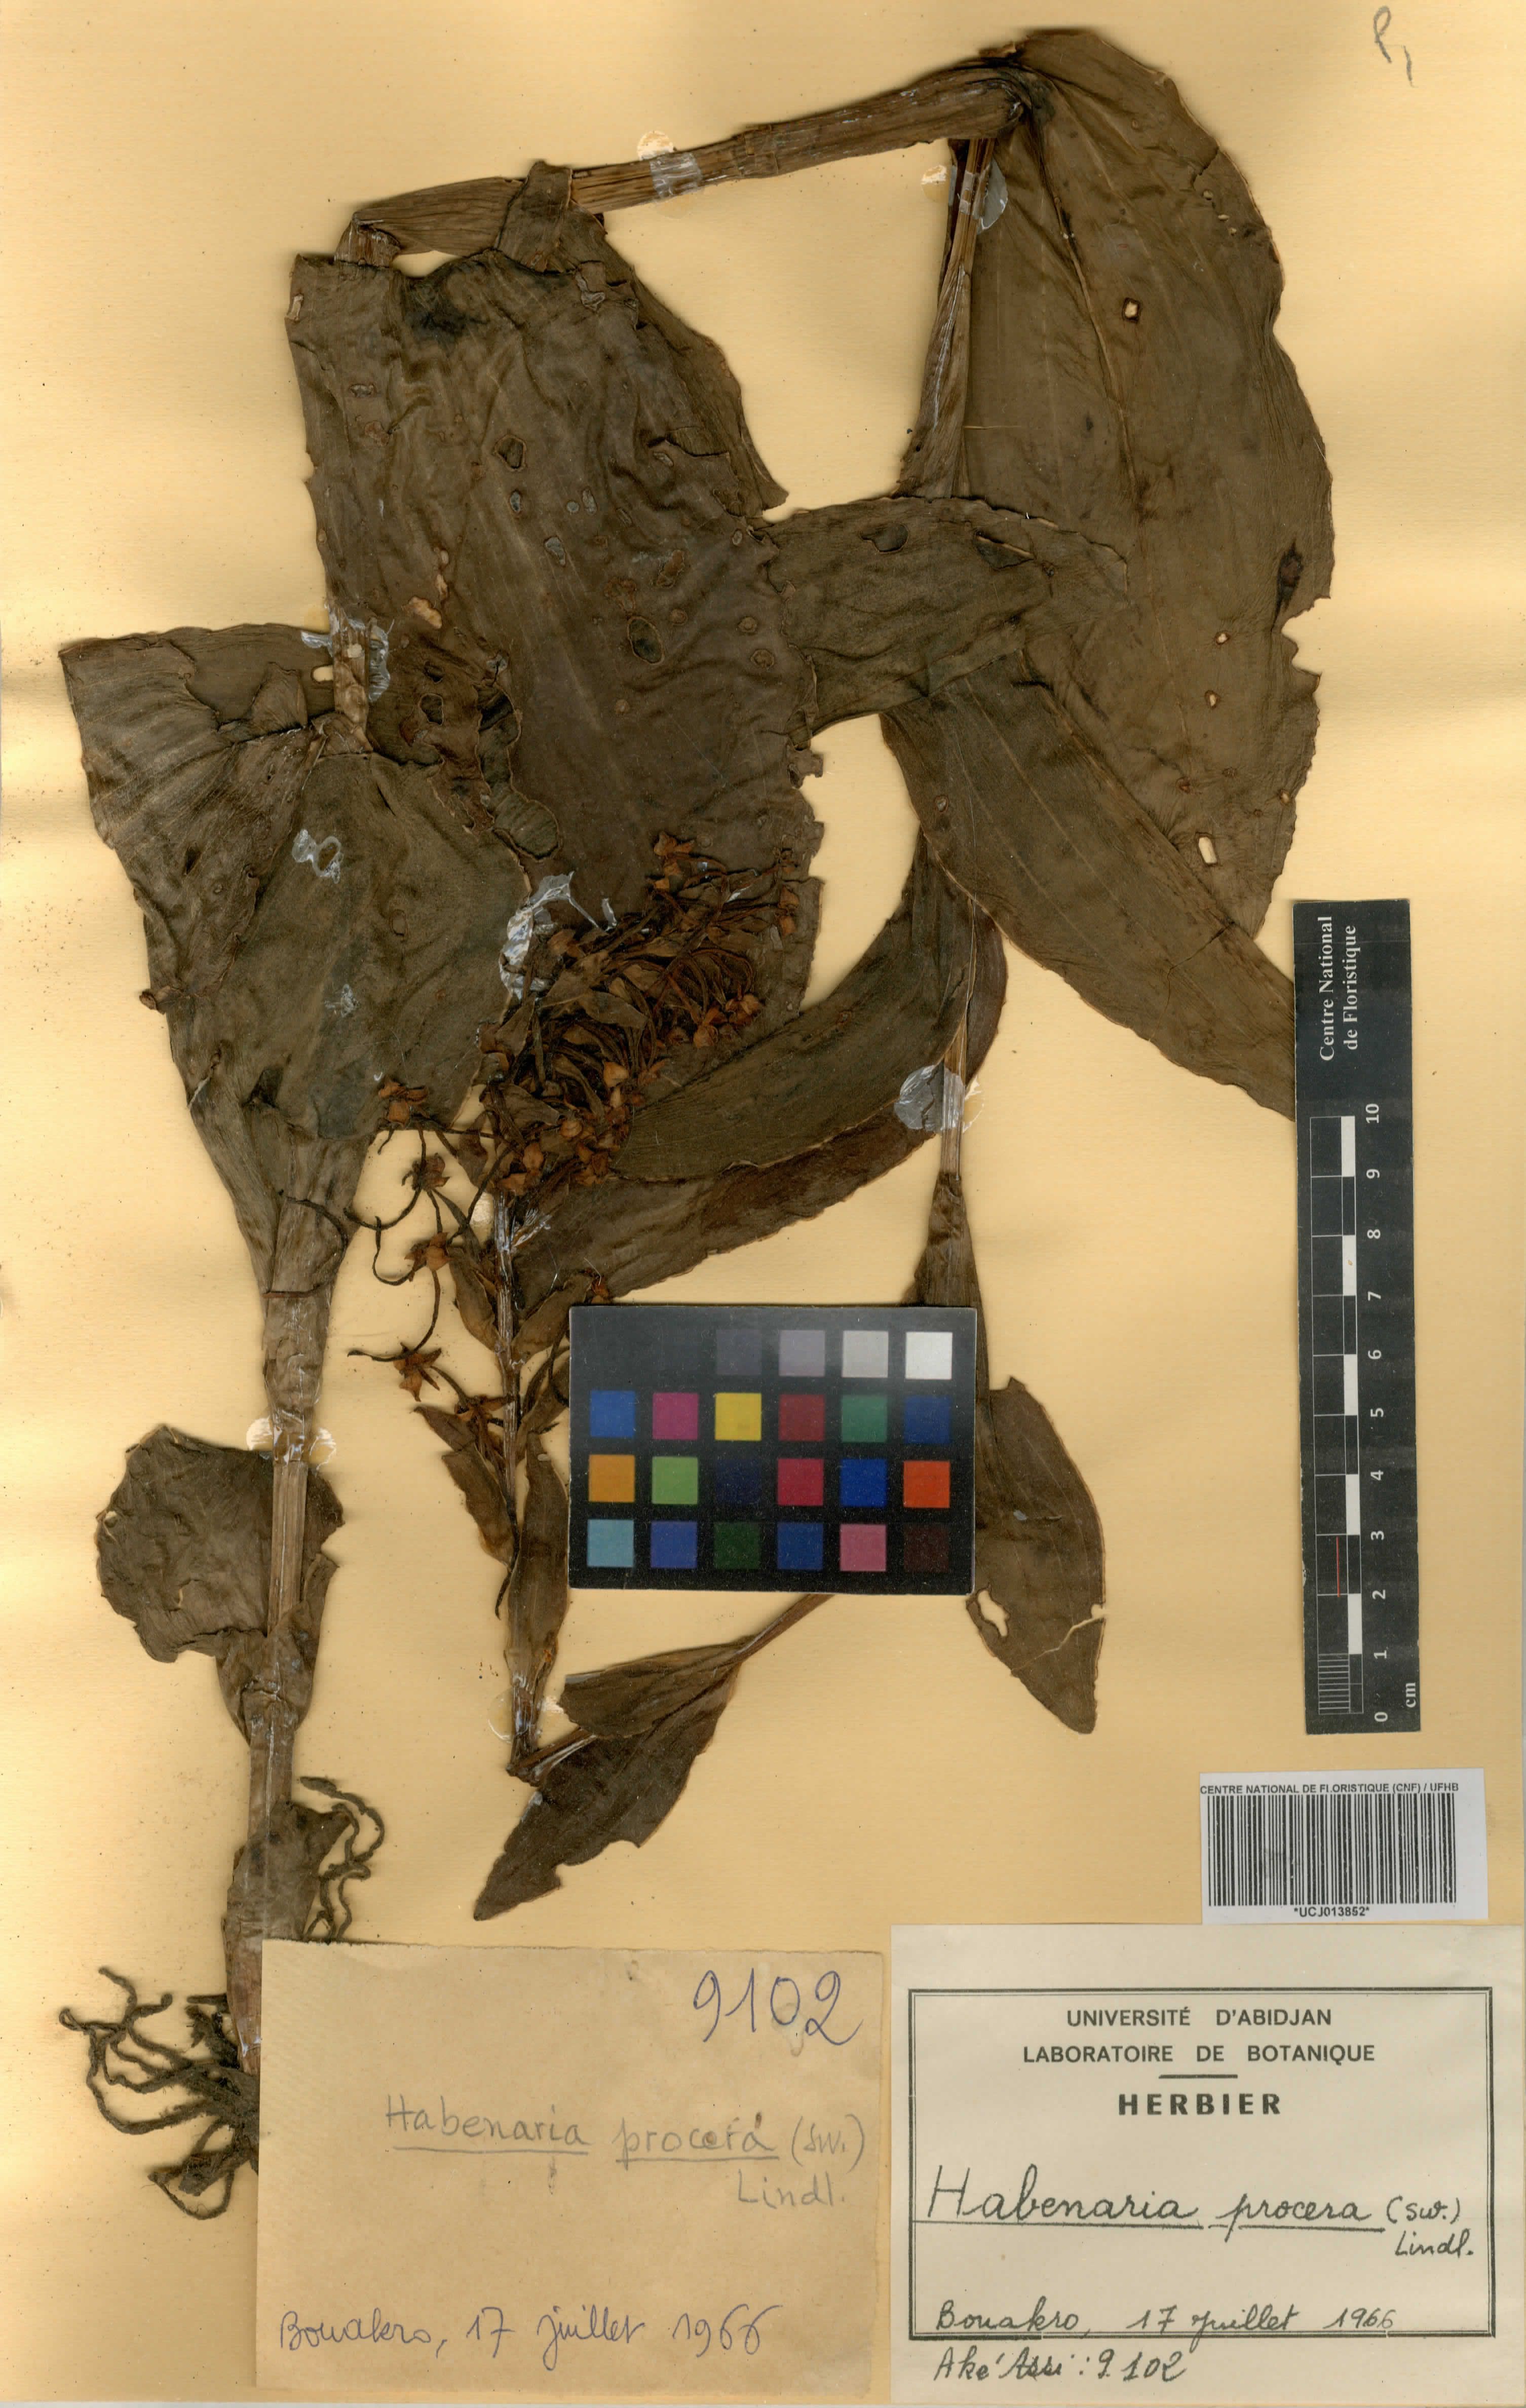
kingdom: Plantae
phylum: Tracheophyta
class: Liliopsida
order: Asparagales
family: Orchidaceae
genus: Habenaria
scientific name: Habenaria procera
